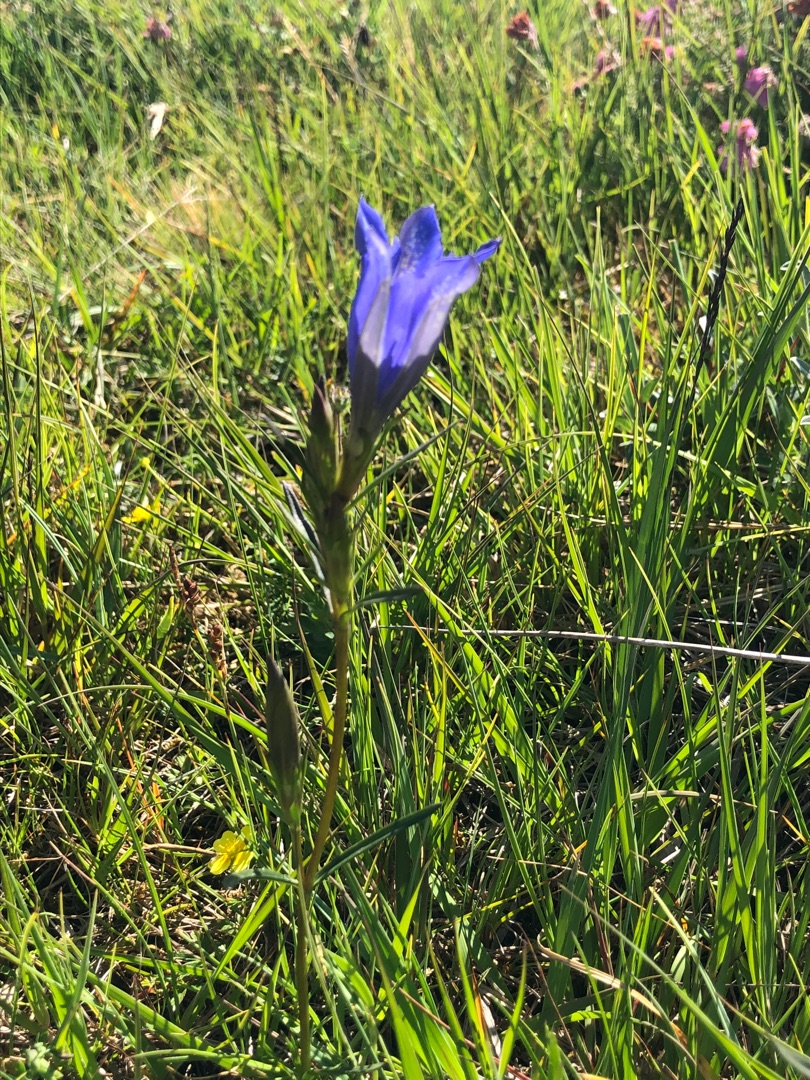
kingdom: Plantae
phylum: Tracheophyta
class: Magnoliopsida
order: Gentianales
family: Gentianaceae
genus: Gentiana
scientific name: Gentiana pneumonanthe
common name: Klokke-ensian
